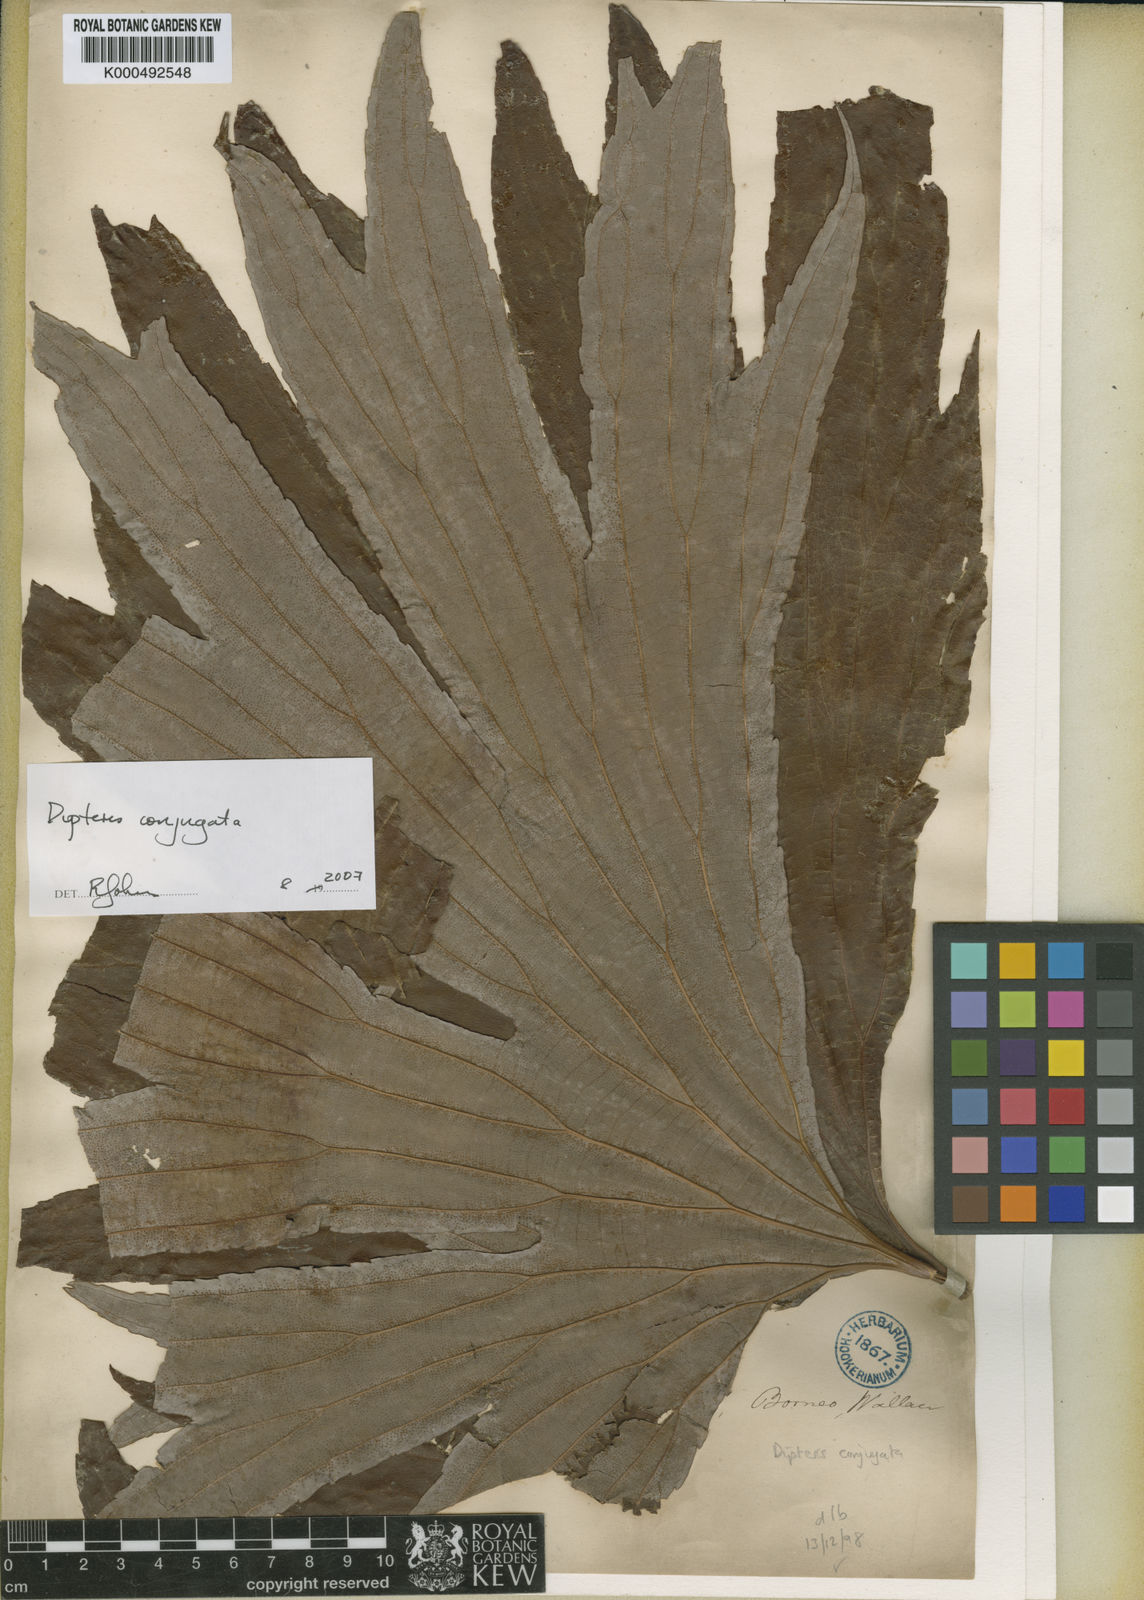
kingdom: Plantae
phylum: Tracheophyta
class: Polypodiopsida
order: Gleicheniales
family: Dipteridaceae
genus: Dipteris
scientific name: Dipteris conjugata
